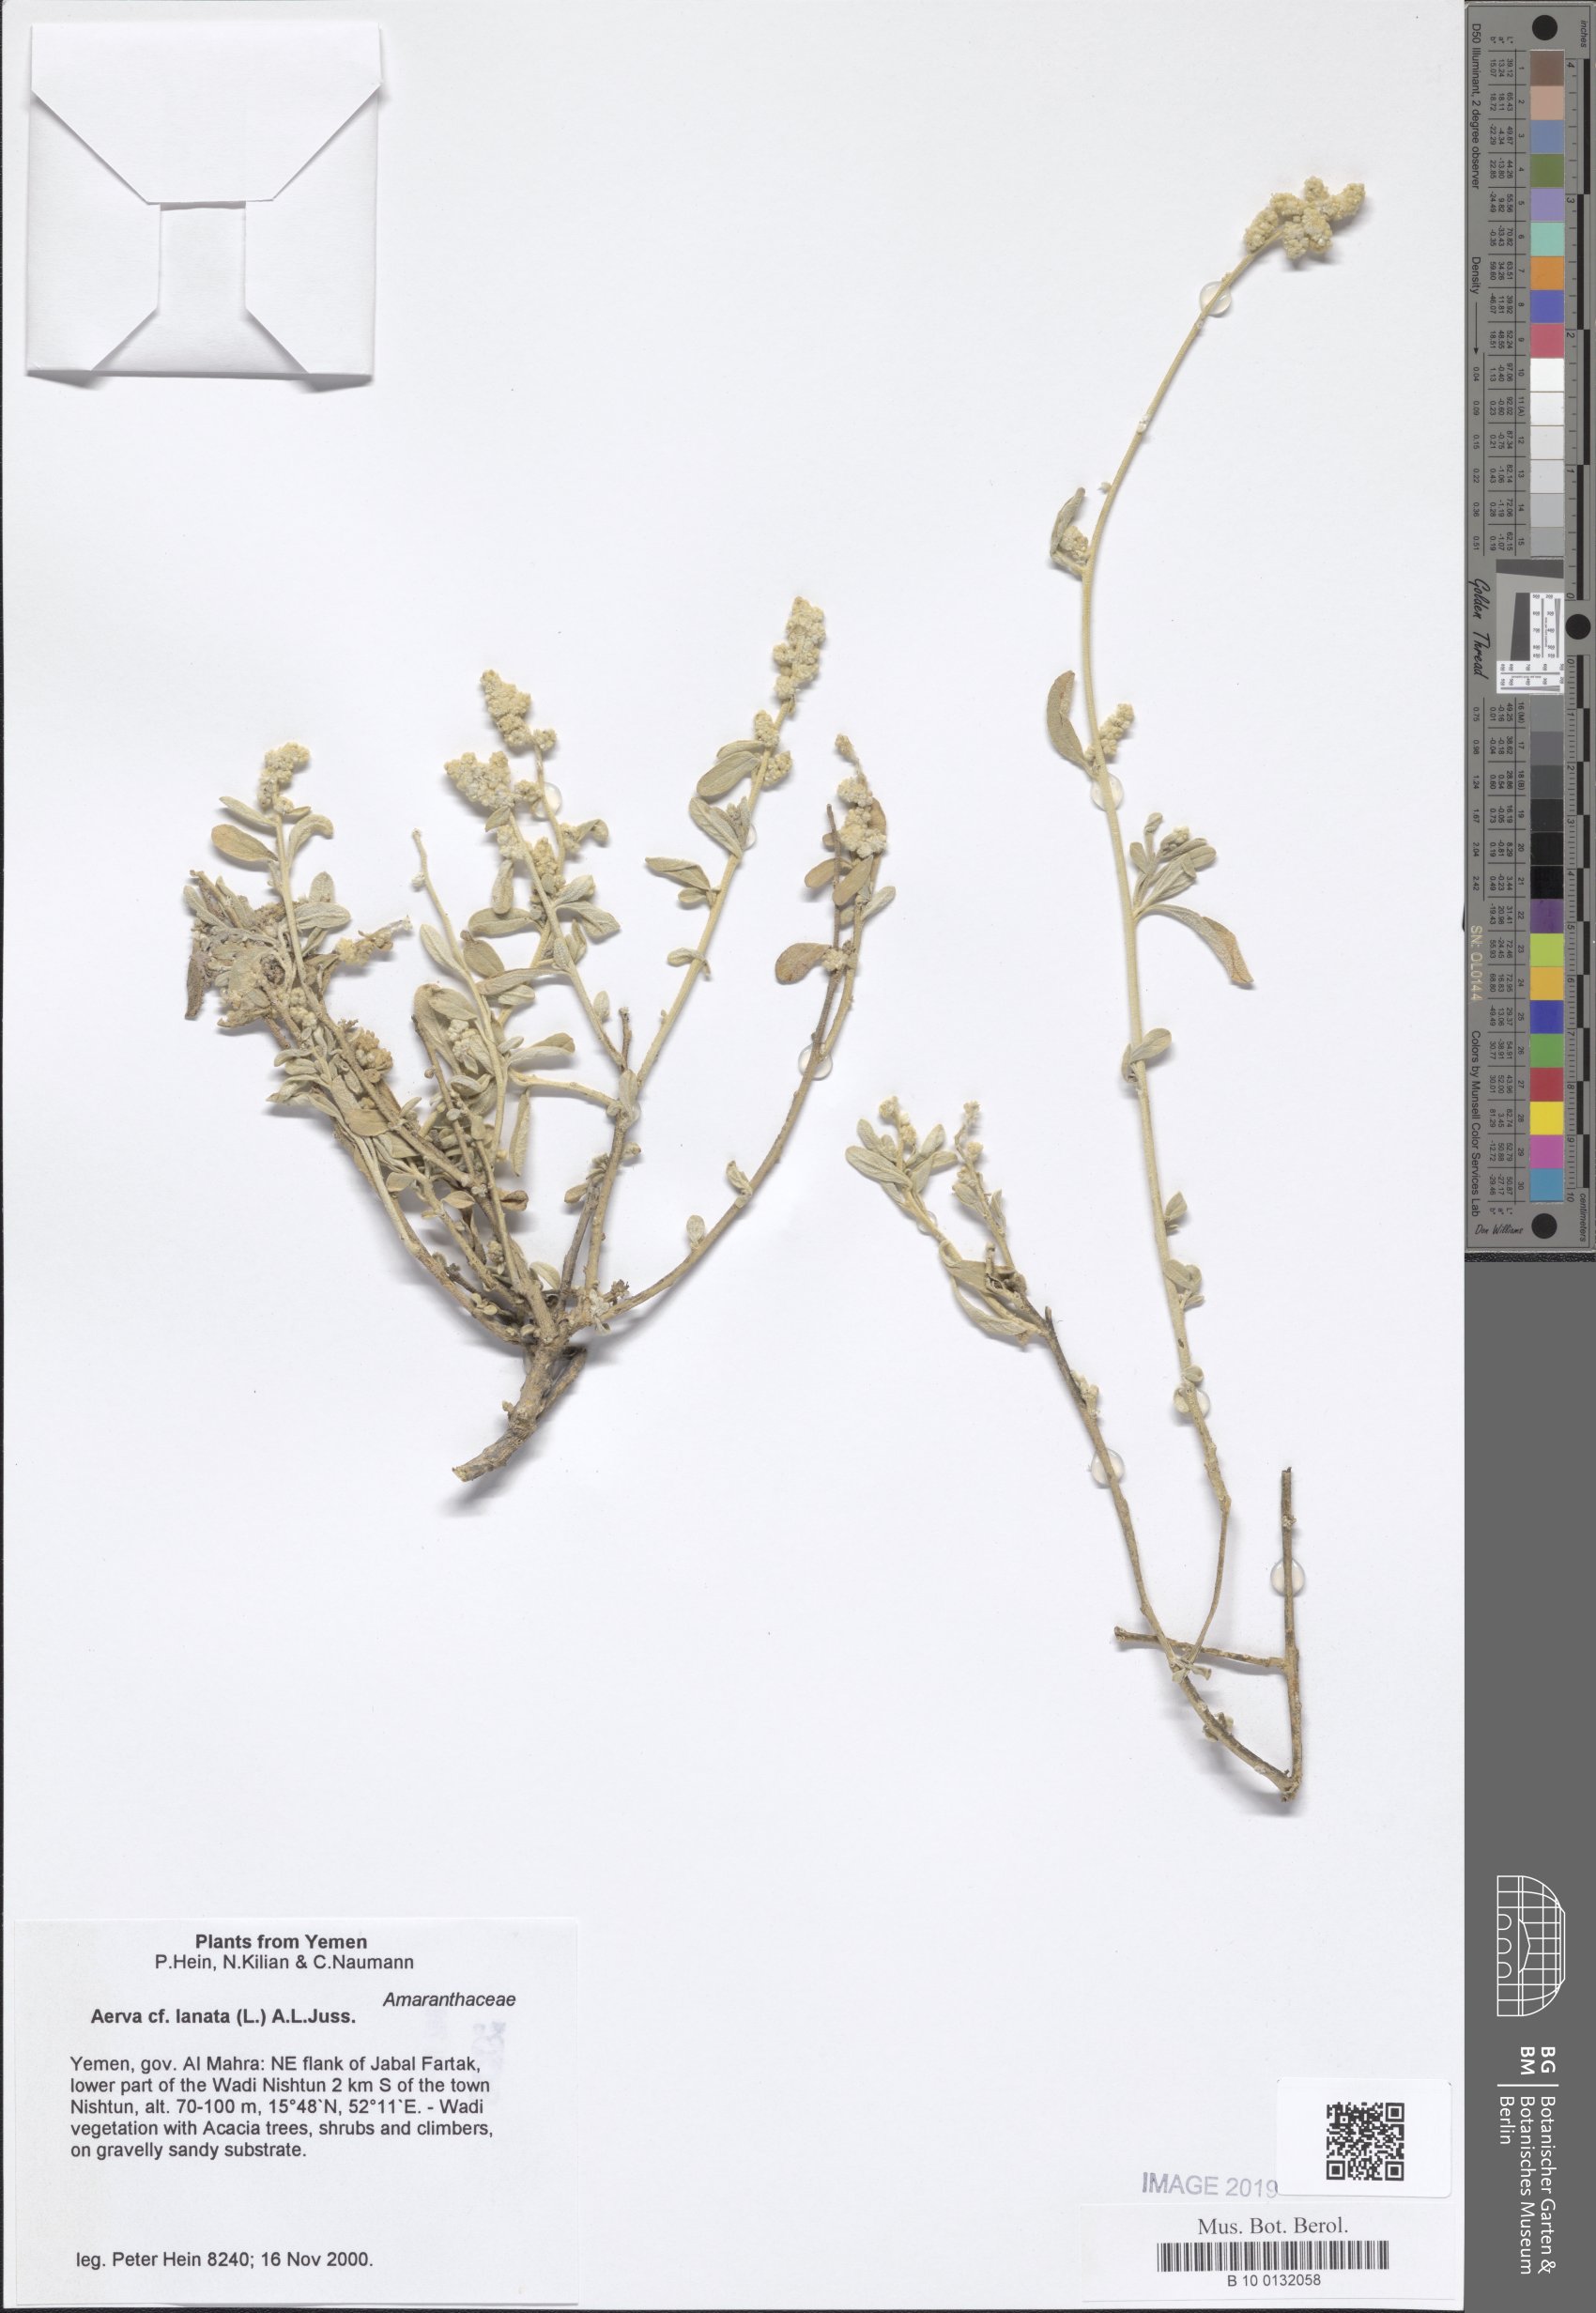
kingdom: Plantae
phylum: Tracheophyta
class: Magnoliopsida
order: Caryophyllales
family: Amaranthaceae
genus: Ouret
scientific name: Ouret lanata
